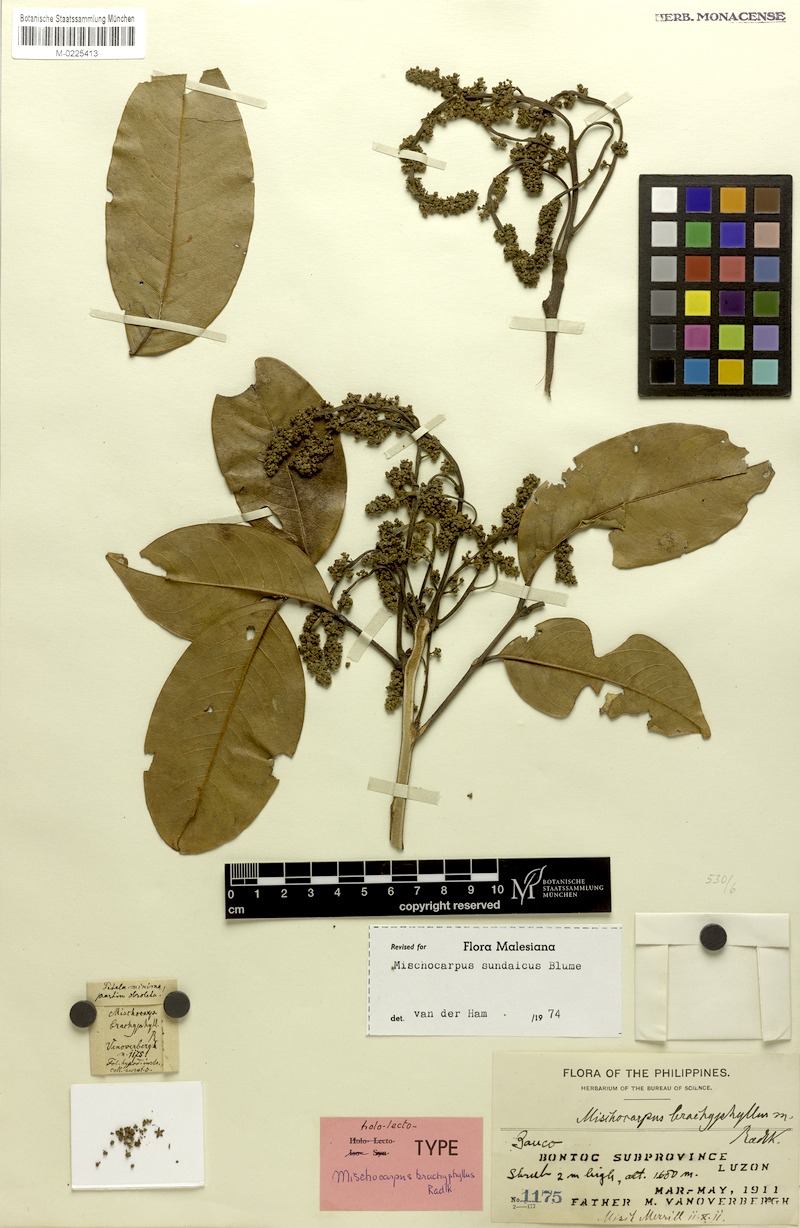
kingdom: Plantae
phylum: Tracheophyta
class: Magnoliopsida
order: Sapindales
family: Sapindaceae
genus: Mischocarpus
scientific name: Mischocarpus sundaicus
